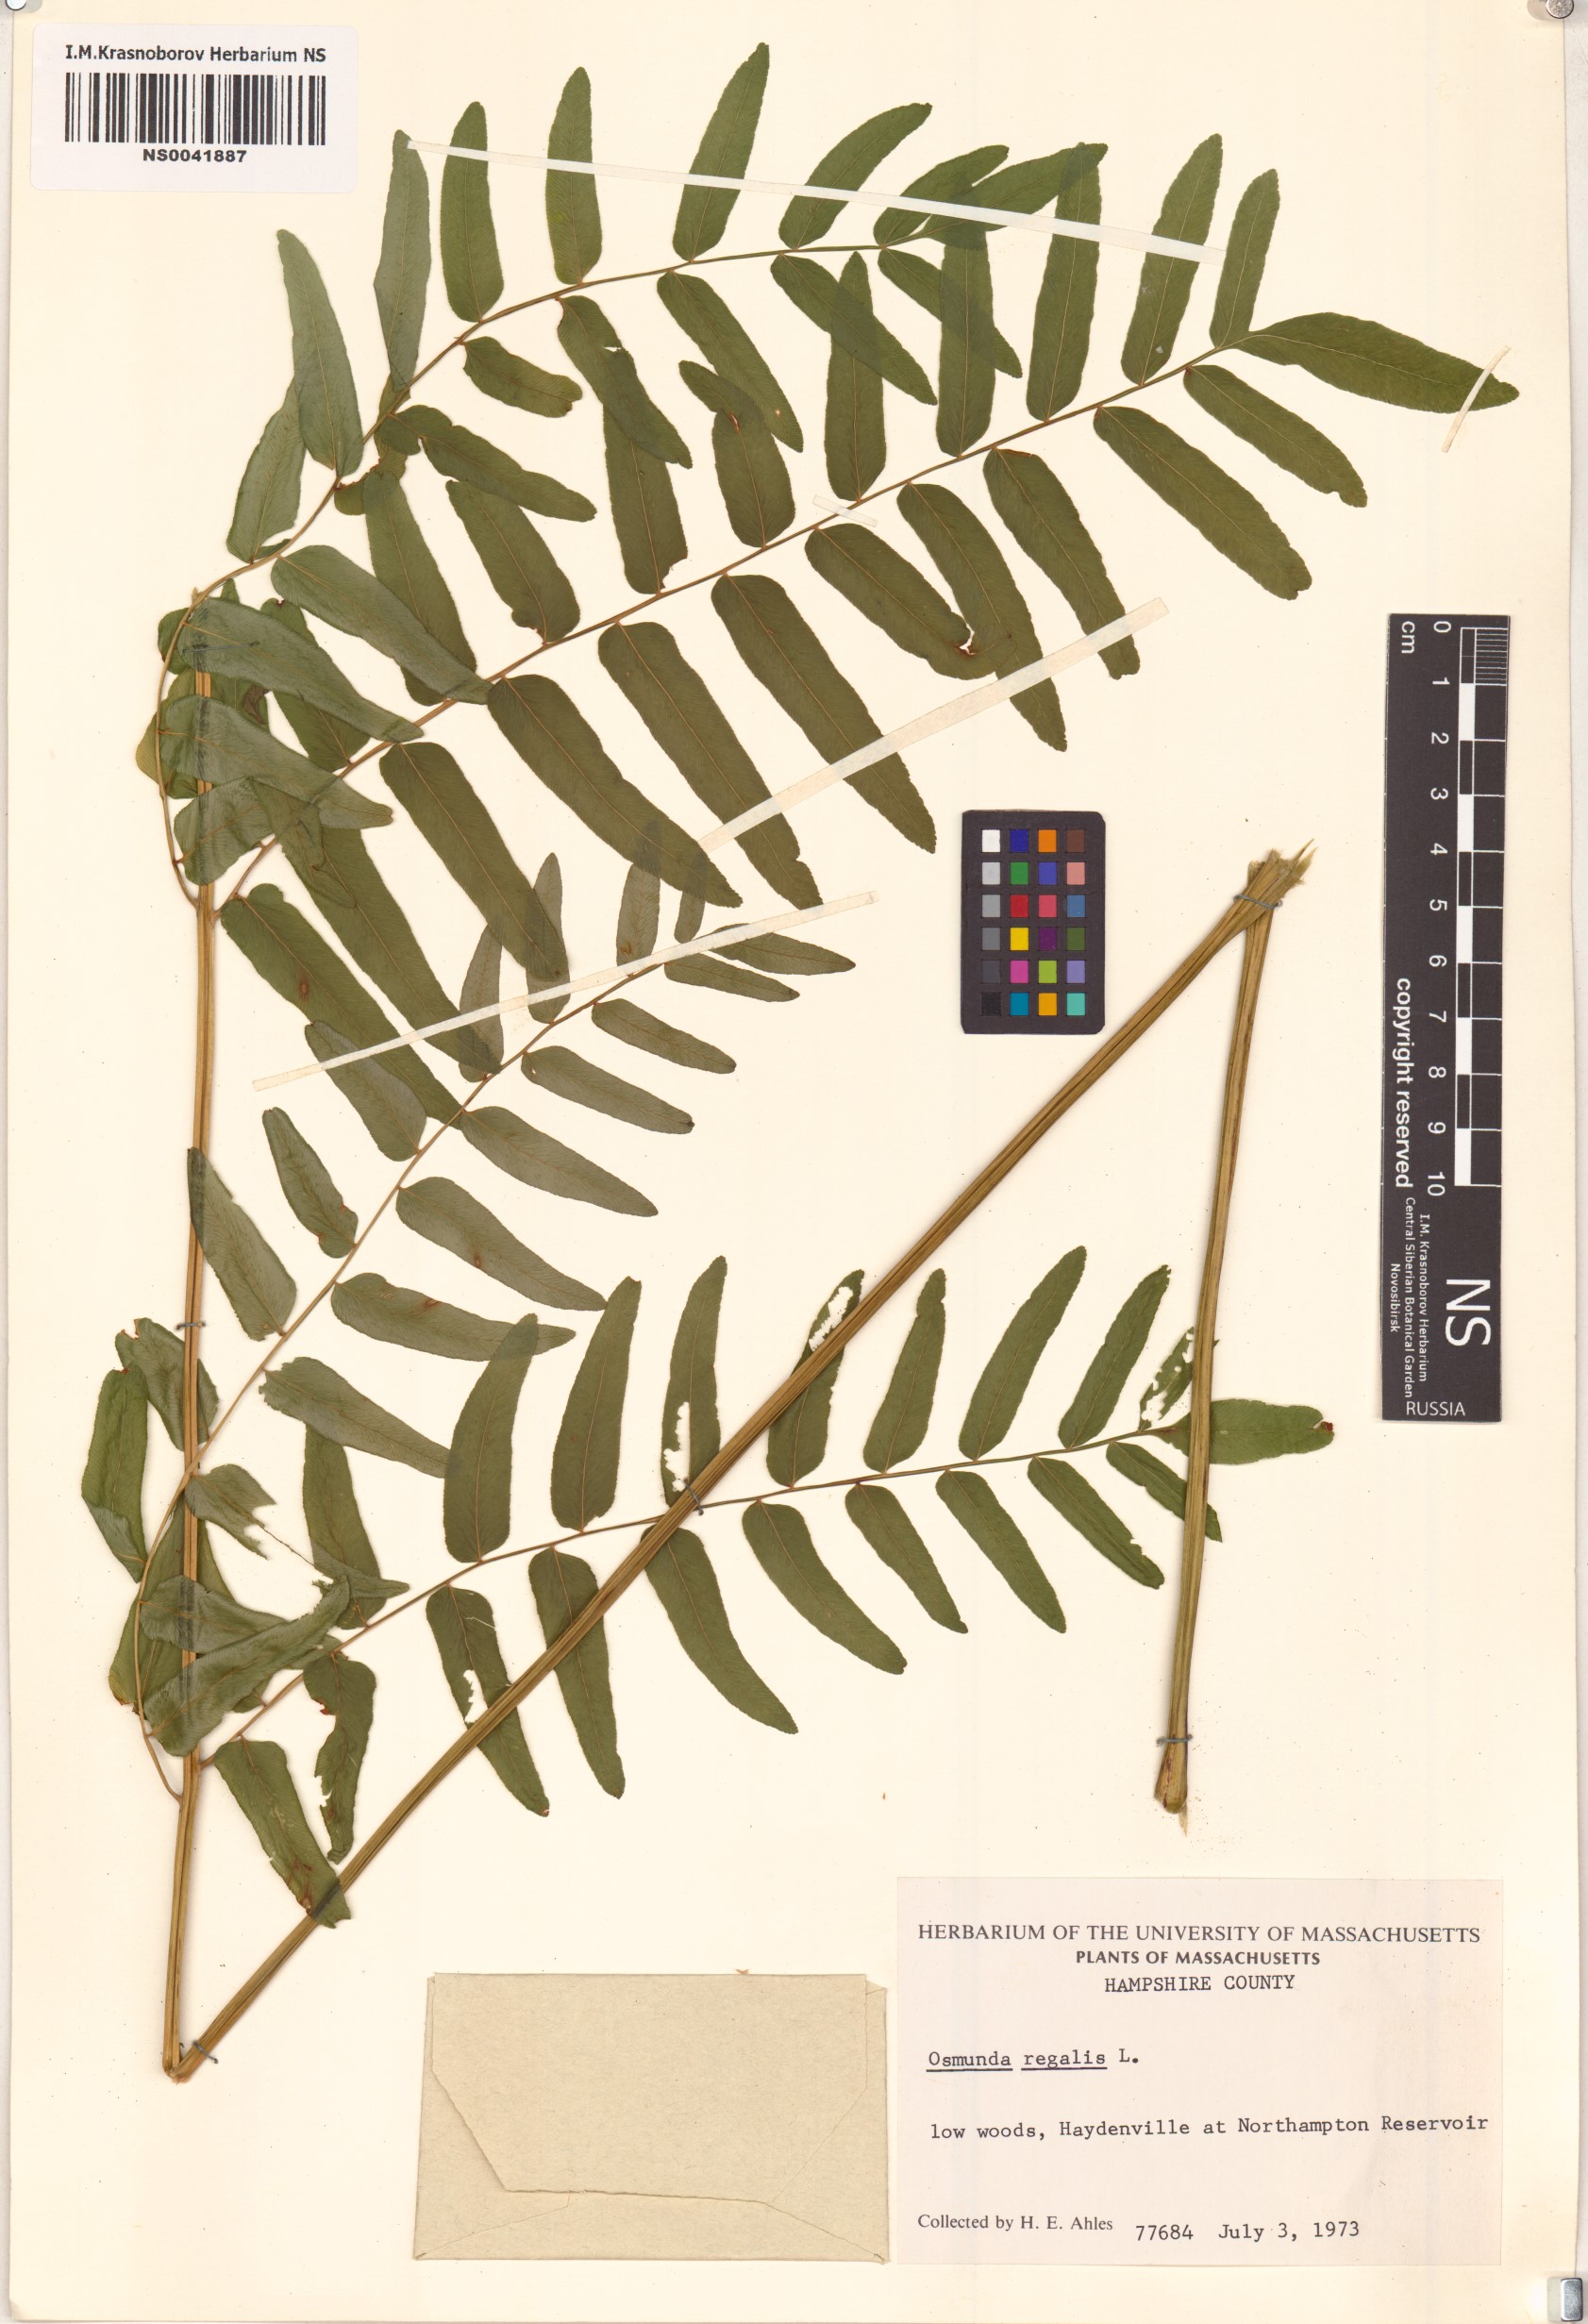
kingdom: Plantae
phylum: Tracheophyta
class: Polypodiopsida
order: Osmundales
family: Osmundaceae
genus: Osmunda
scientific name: Osmunda regalis
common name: Royal fern
